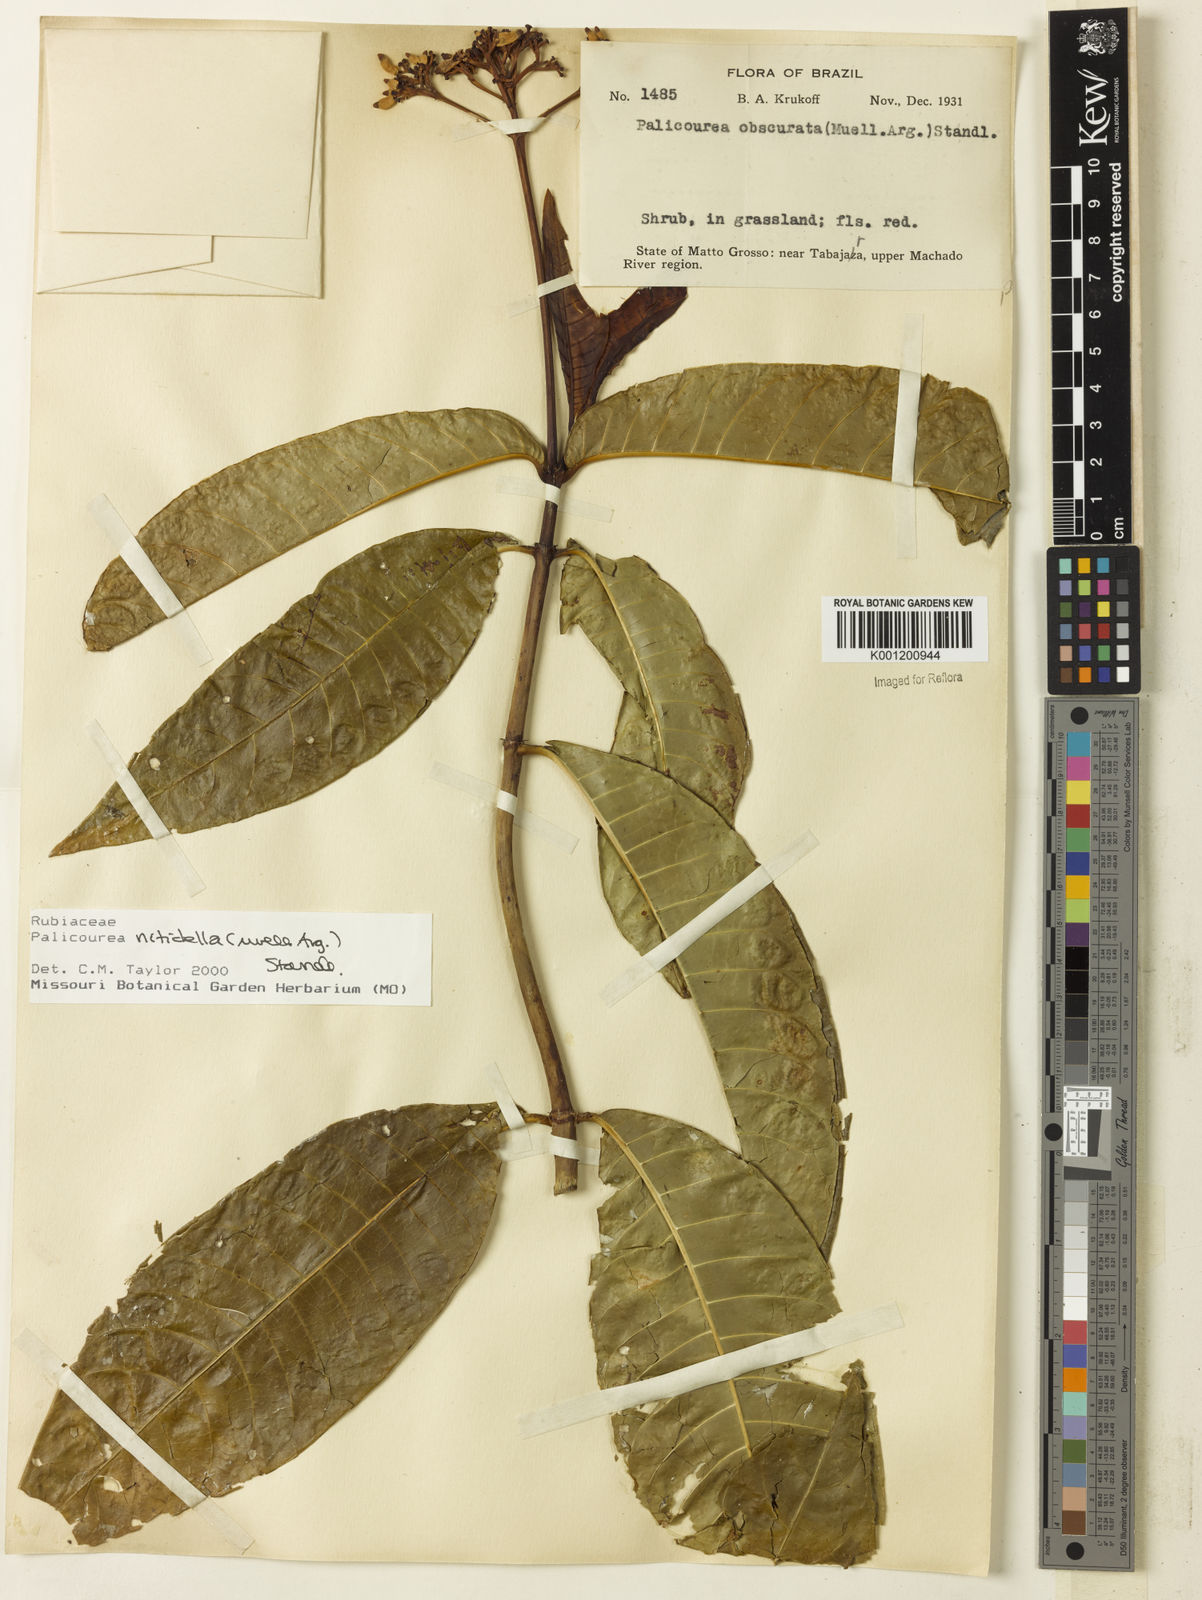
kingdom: Plantae
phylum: Tracheophyta
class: Magnoliopsida
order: Gentianales
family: Rubiaceae
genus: Palicourea
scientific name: Palicourea
